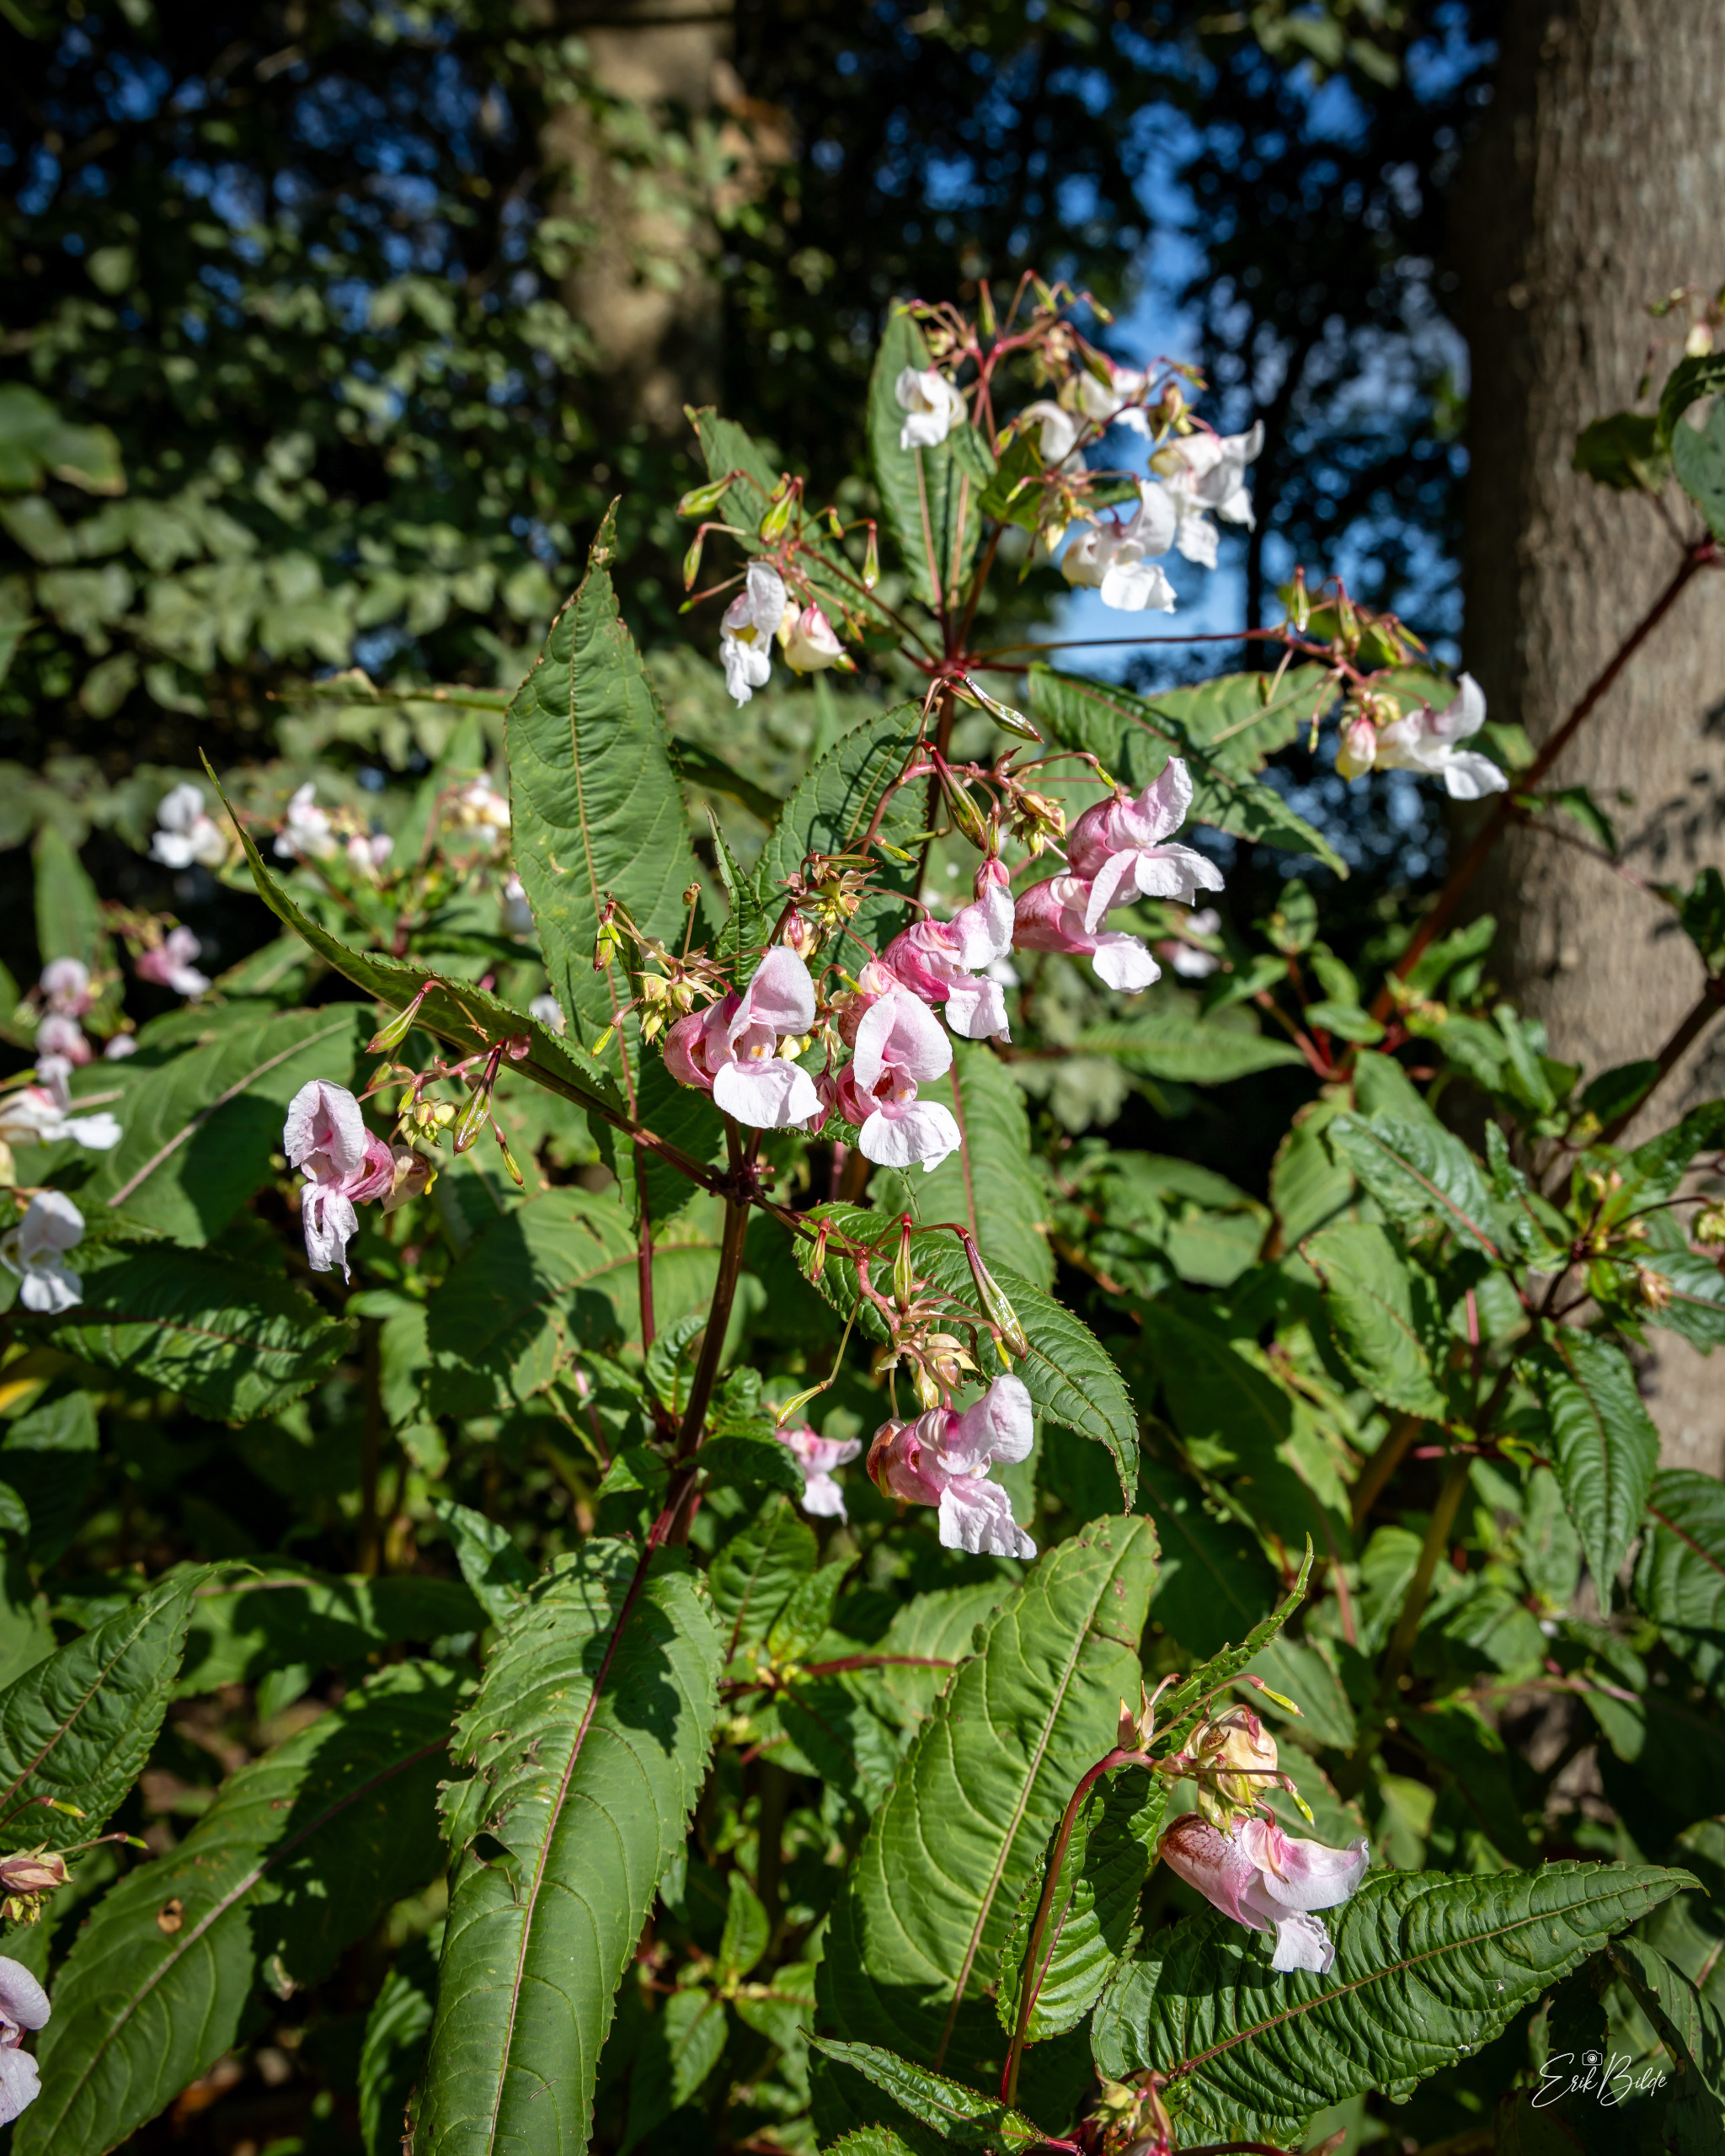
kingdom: Plantae
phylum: Tracheophyta
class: Magnoliopsida
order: Ericales
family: Balsaminaceae
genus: Impatiens
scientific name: Impatiens glandulifera
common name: Kæmpe-balsamin
